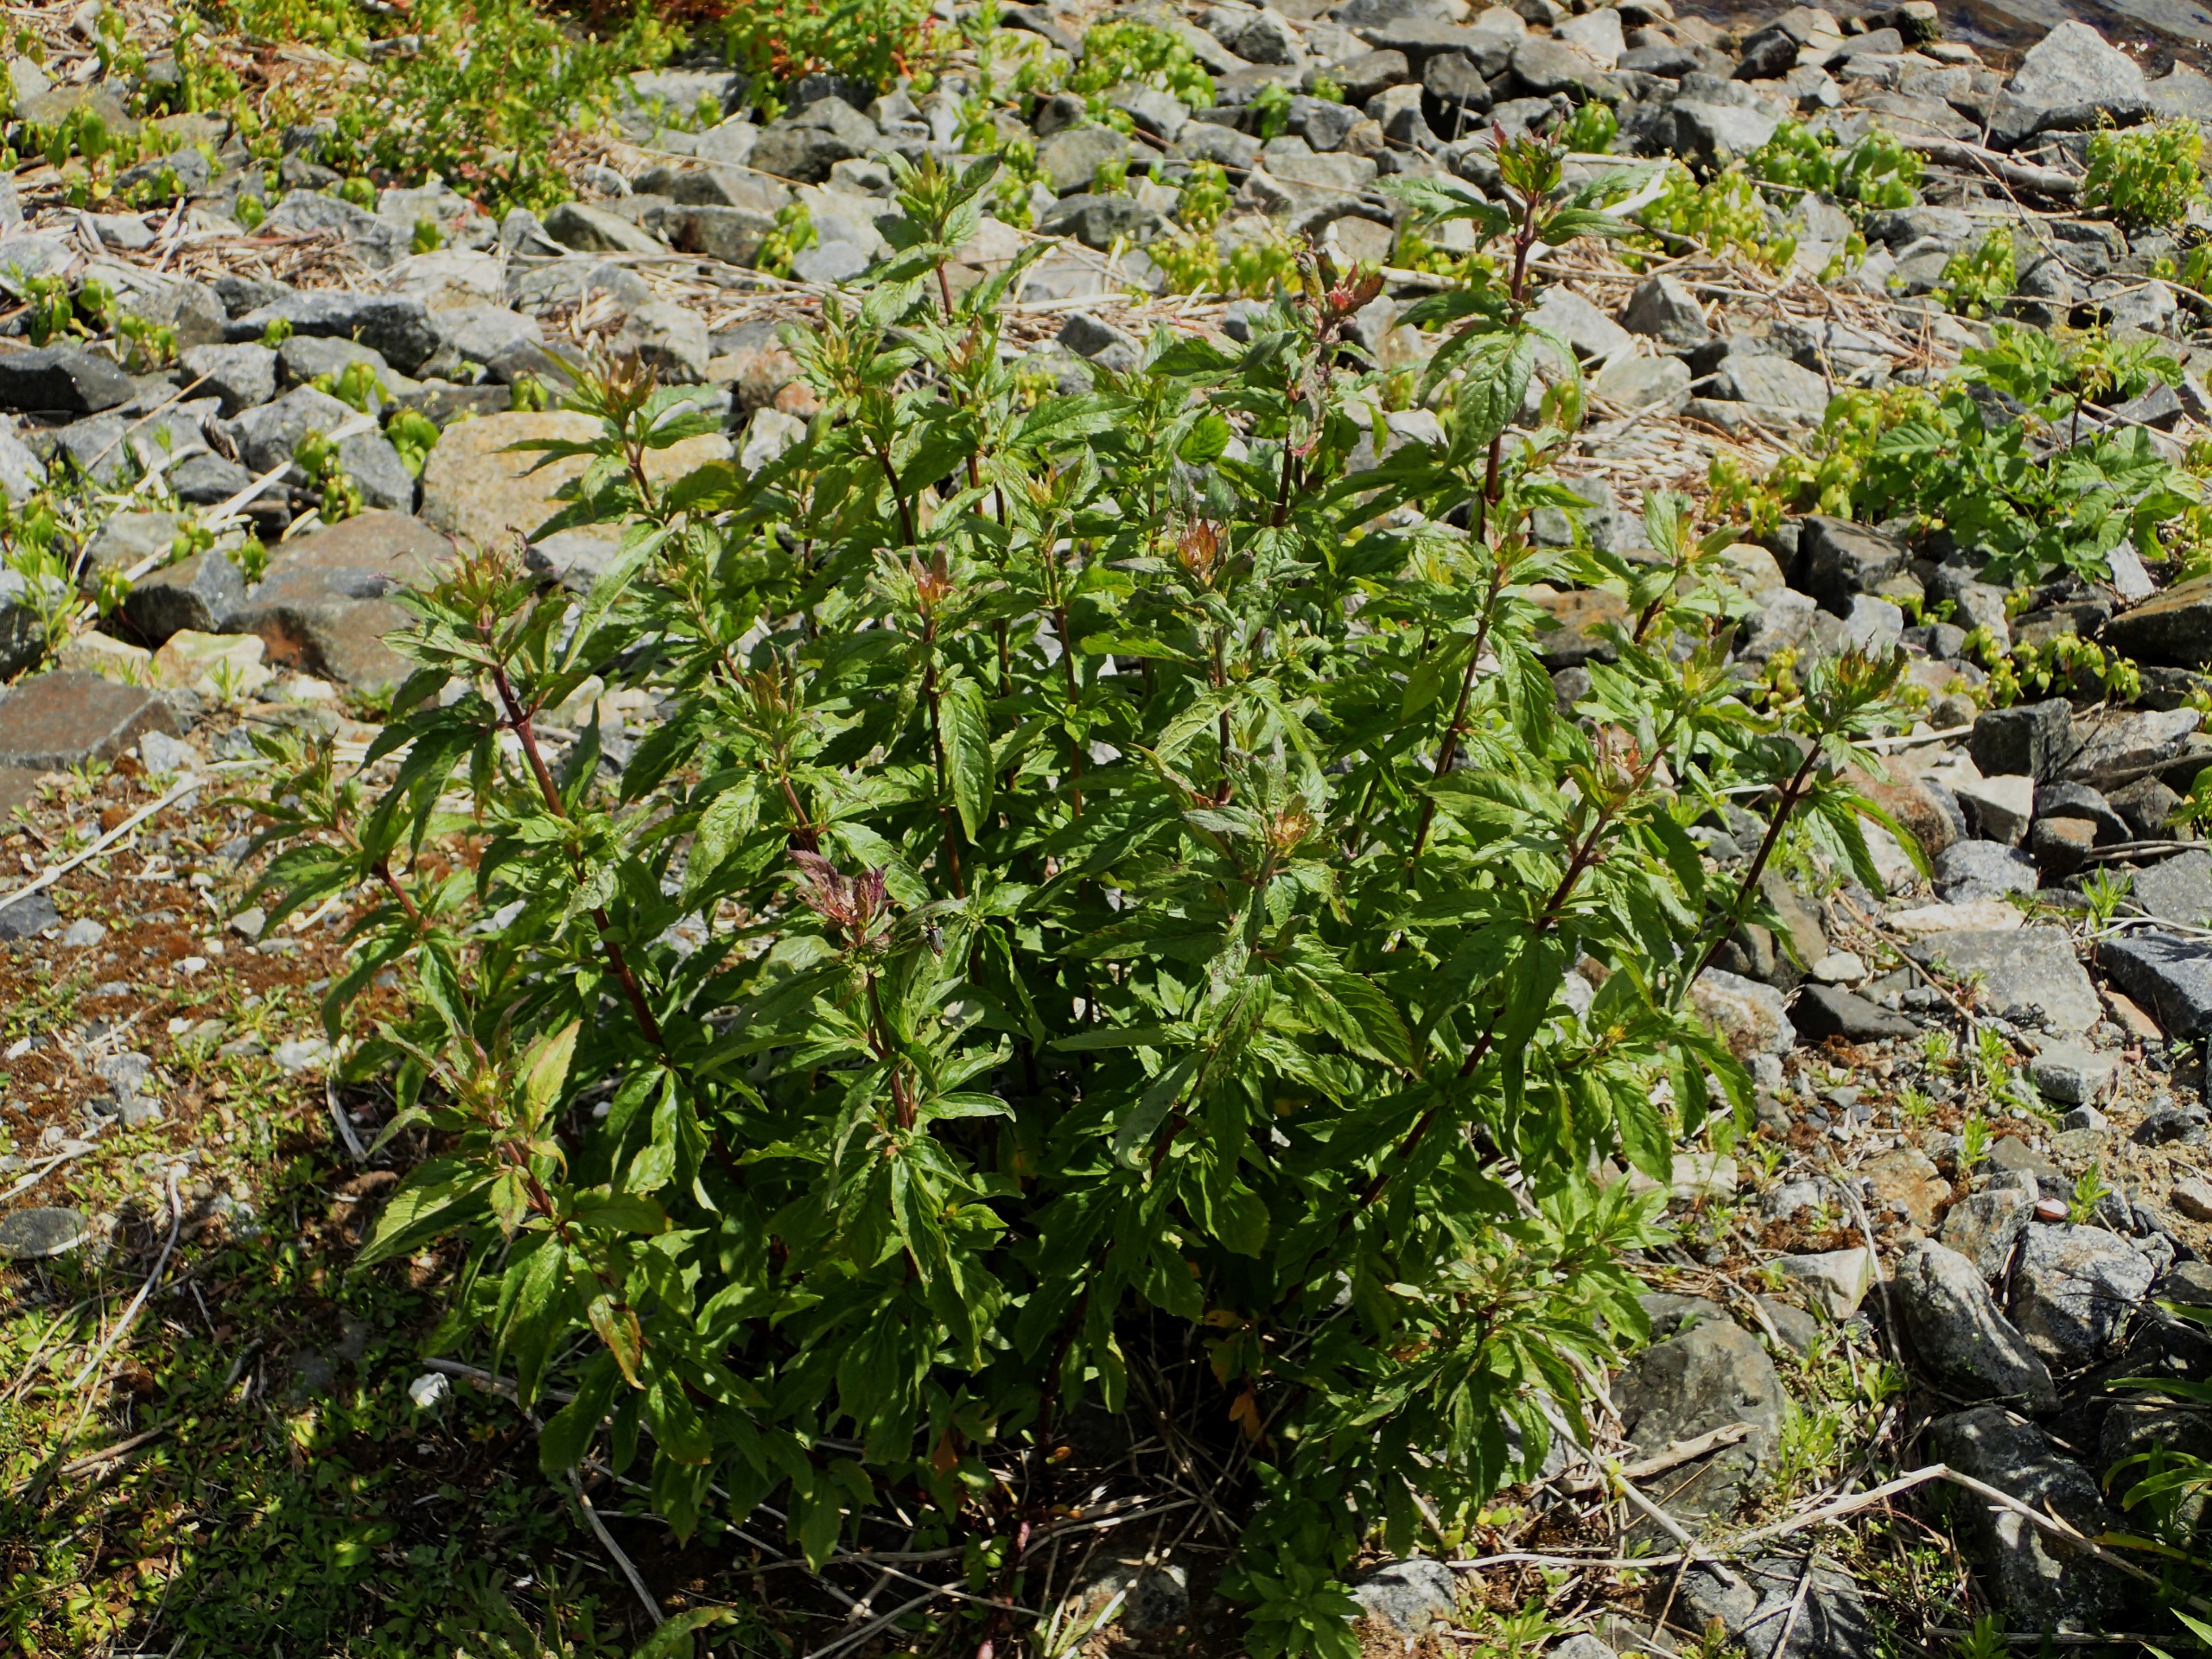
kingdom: Plantae
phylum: Tracheophyta
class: Magnoliopsida
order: Asterales
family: Asteraceae
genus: Eupatorium
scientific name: Eupatorium cannabinum
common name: Hjortetrøst
